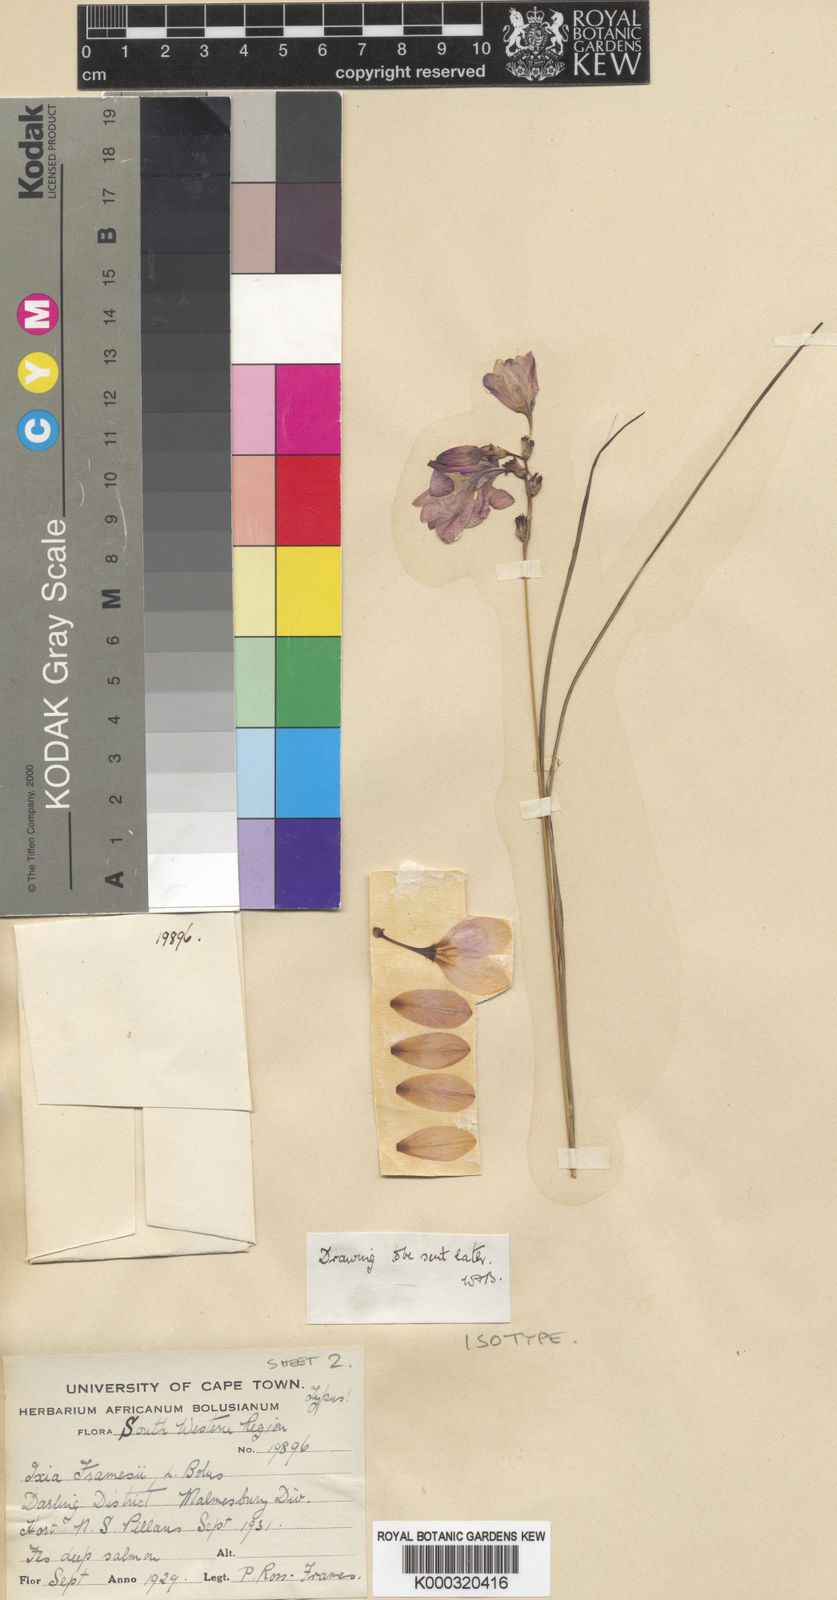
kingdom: Plantae
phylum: Tracheophyta
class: Liliopsida
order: Asparagales
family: Iridaceae
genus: Ixia
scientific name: Ixia tenuifolia
